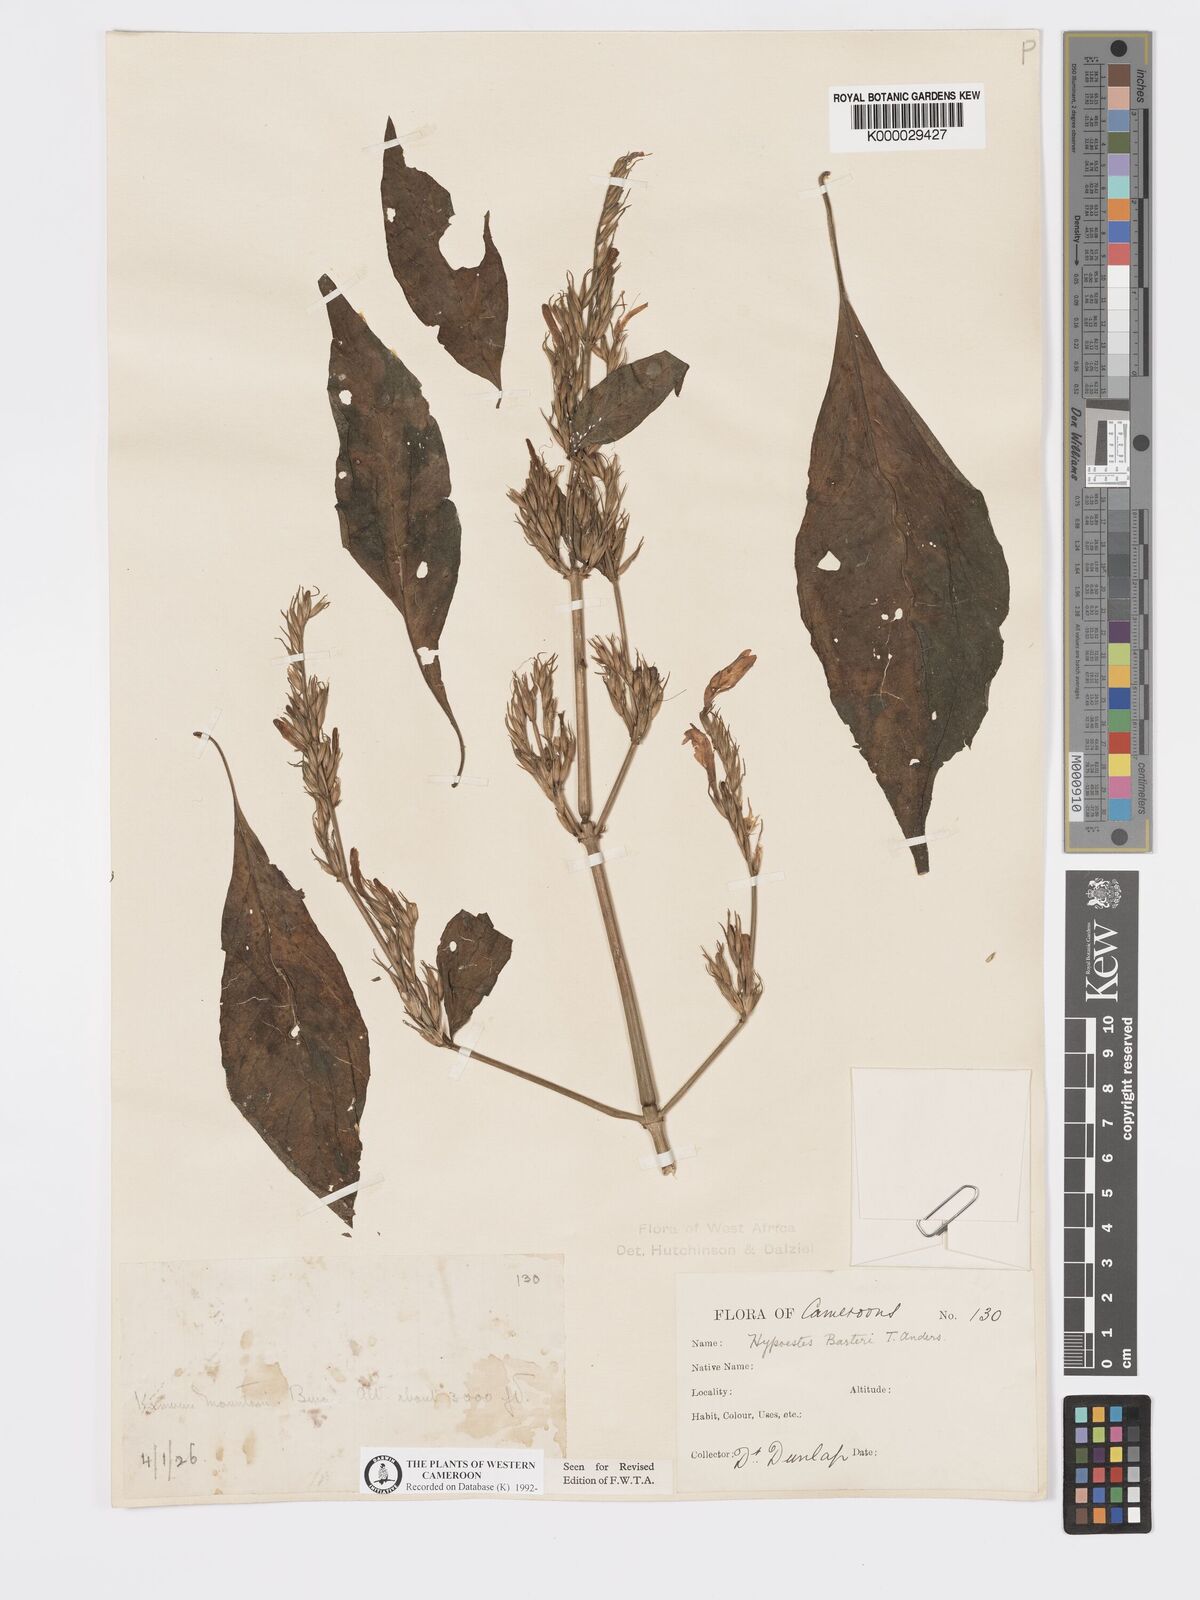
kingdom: Plantae
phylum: Tracheophyta
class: Magnoliopsida
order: Lamiales
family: Acanthaceae
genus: Hypoestes
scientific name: Hypoestes rosea
